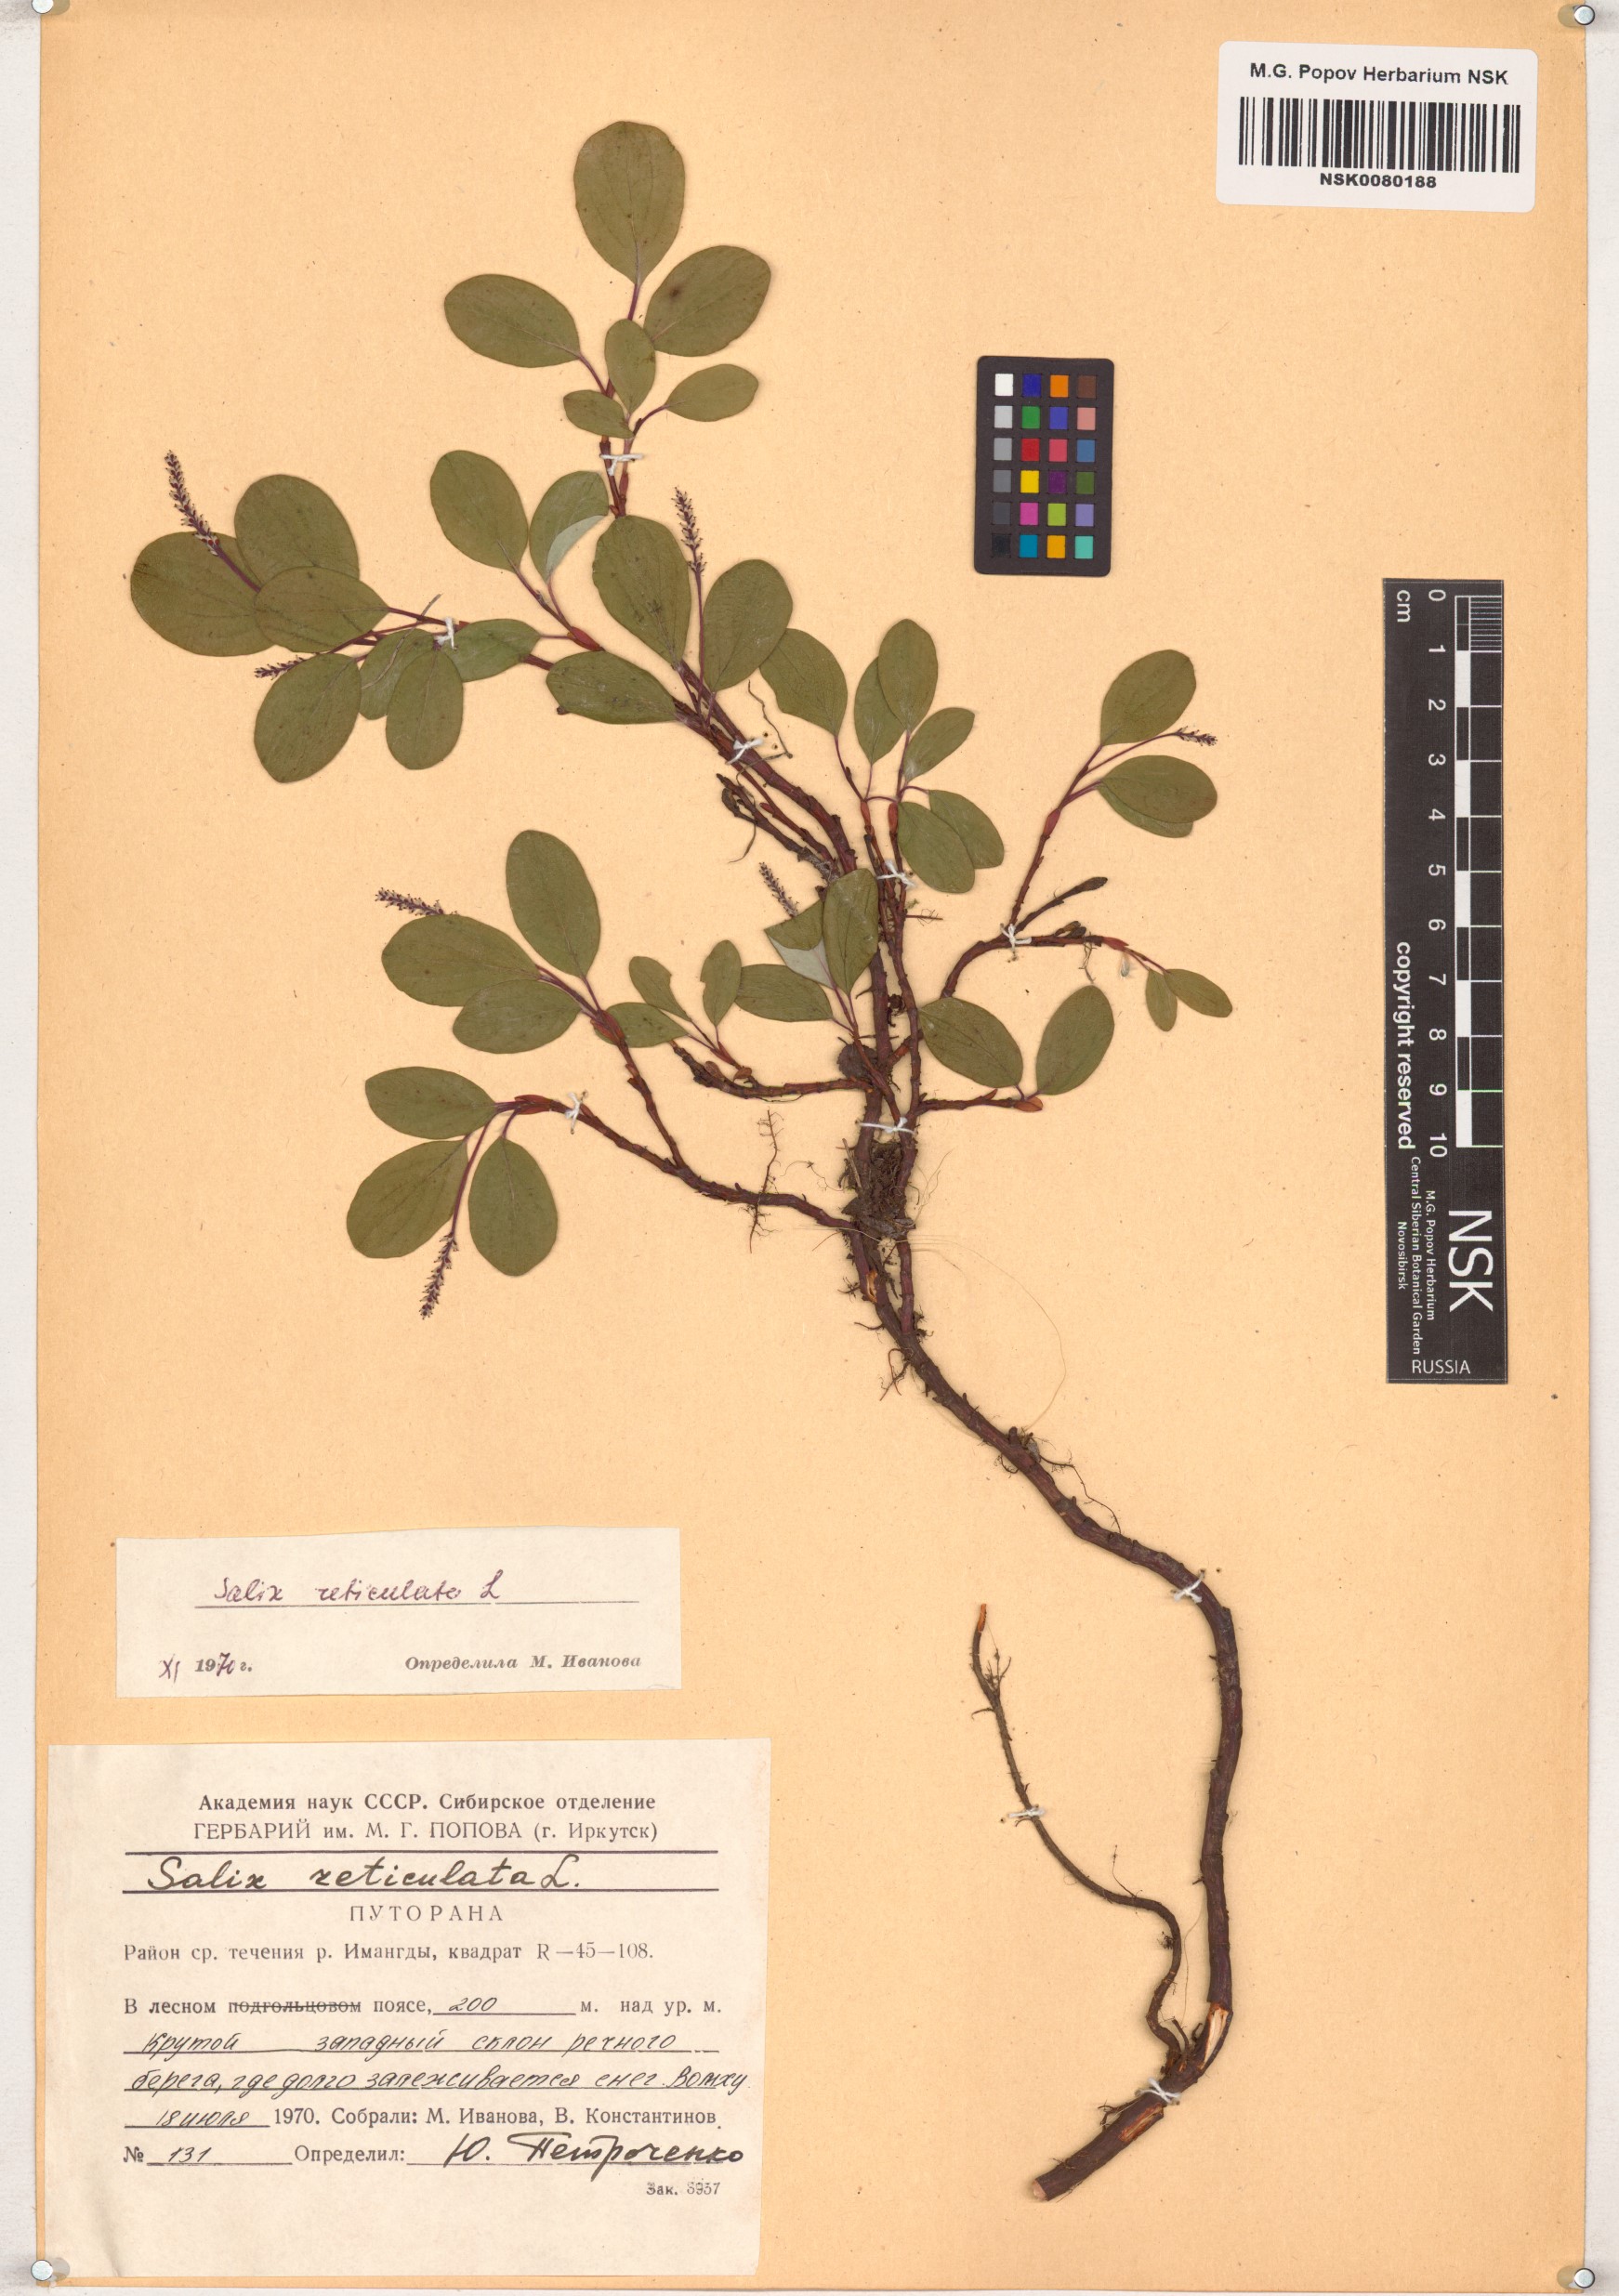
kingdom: Plantae
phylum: Tracheophyta
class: Magnoliopsida
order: Malpighiales
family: Salicaceae
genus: Salix
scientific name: Salix reticulata
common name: Net-leaved willow
